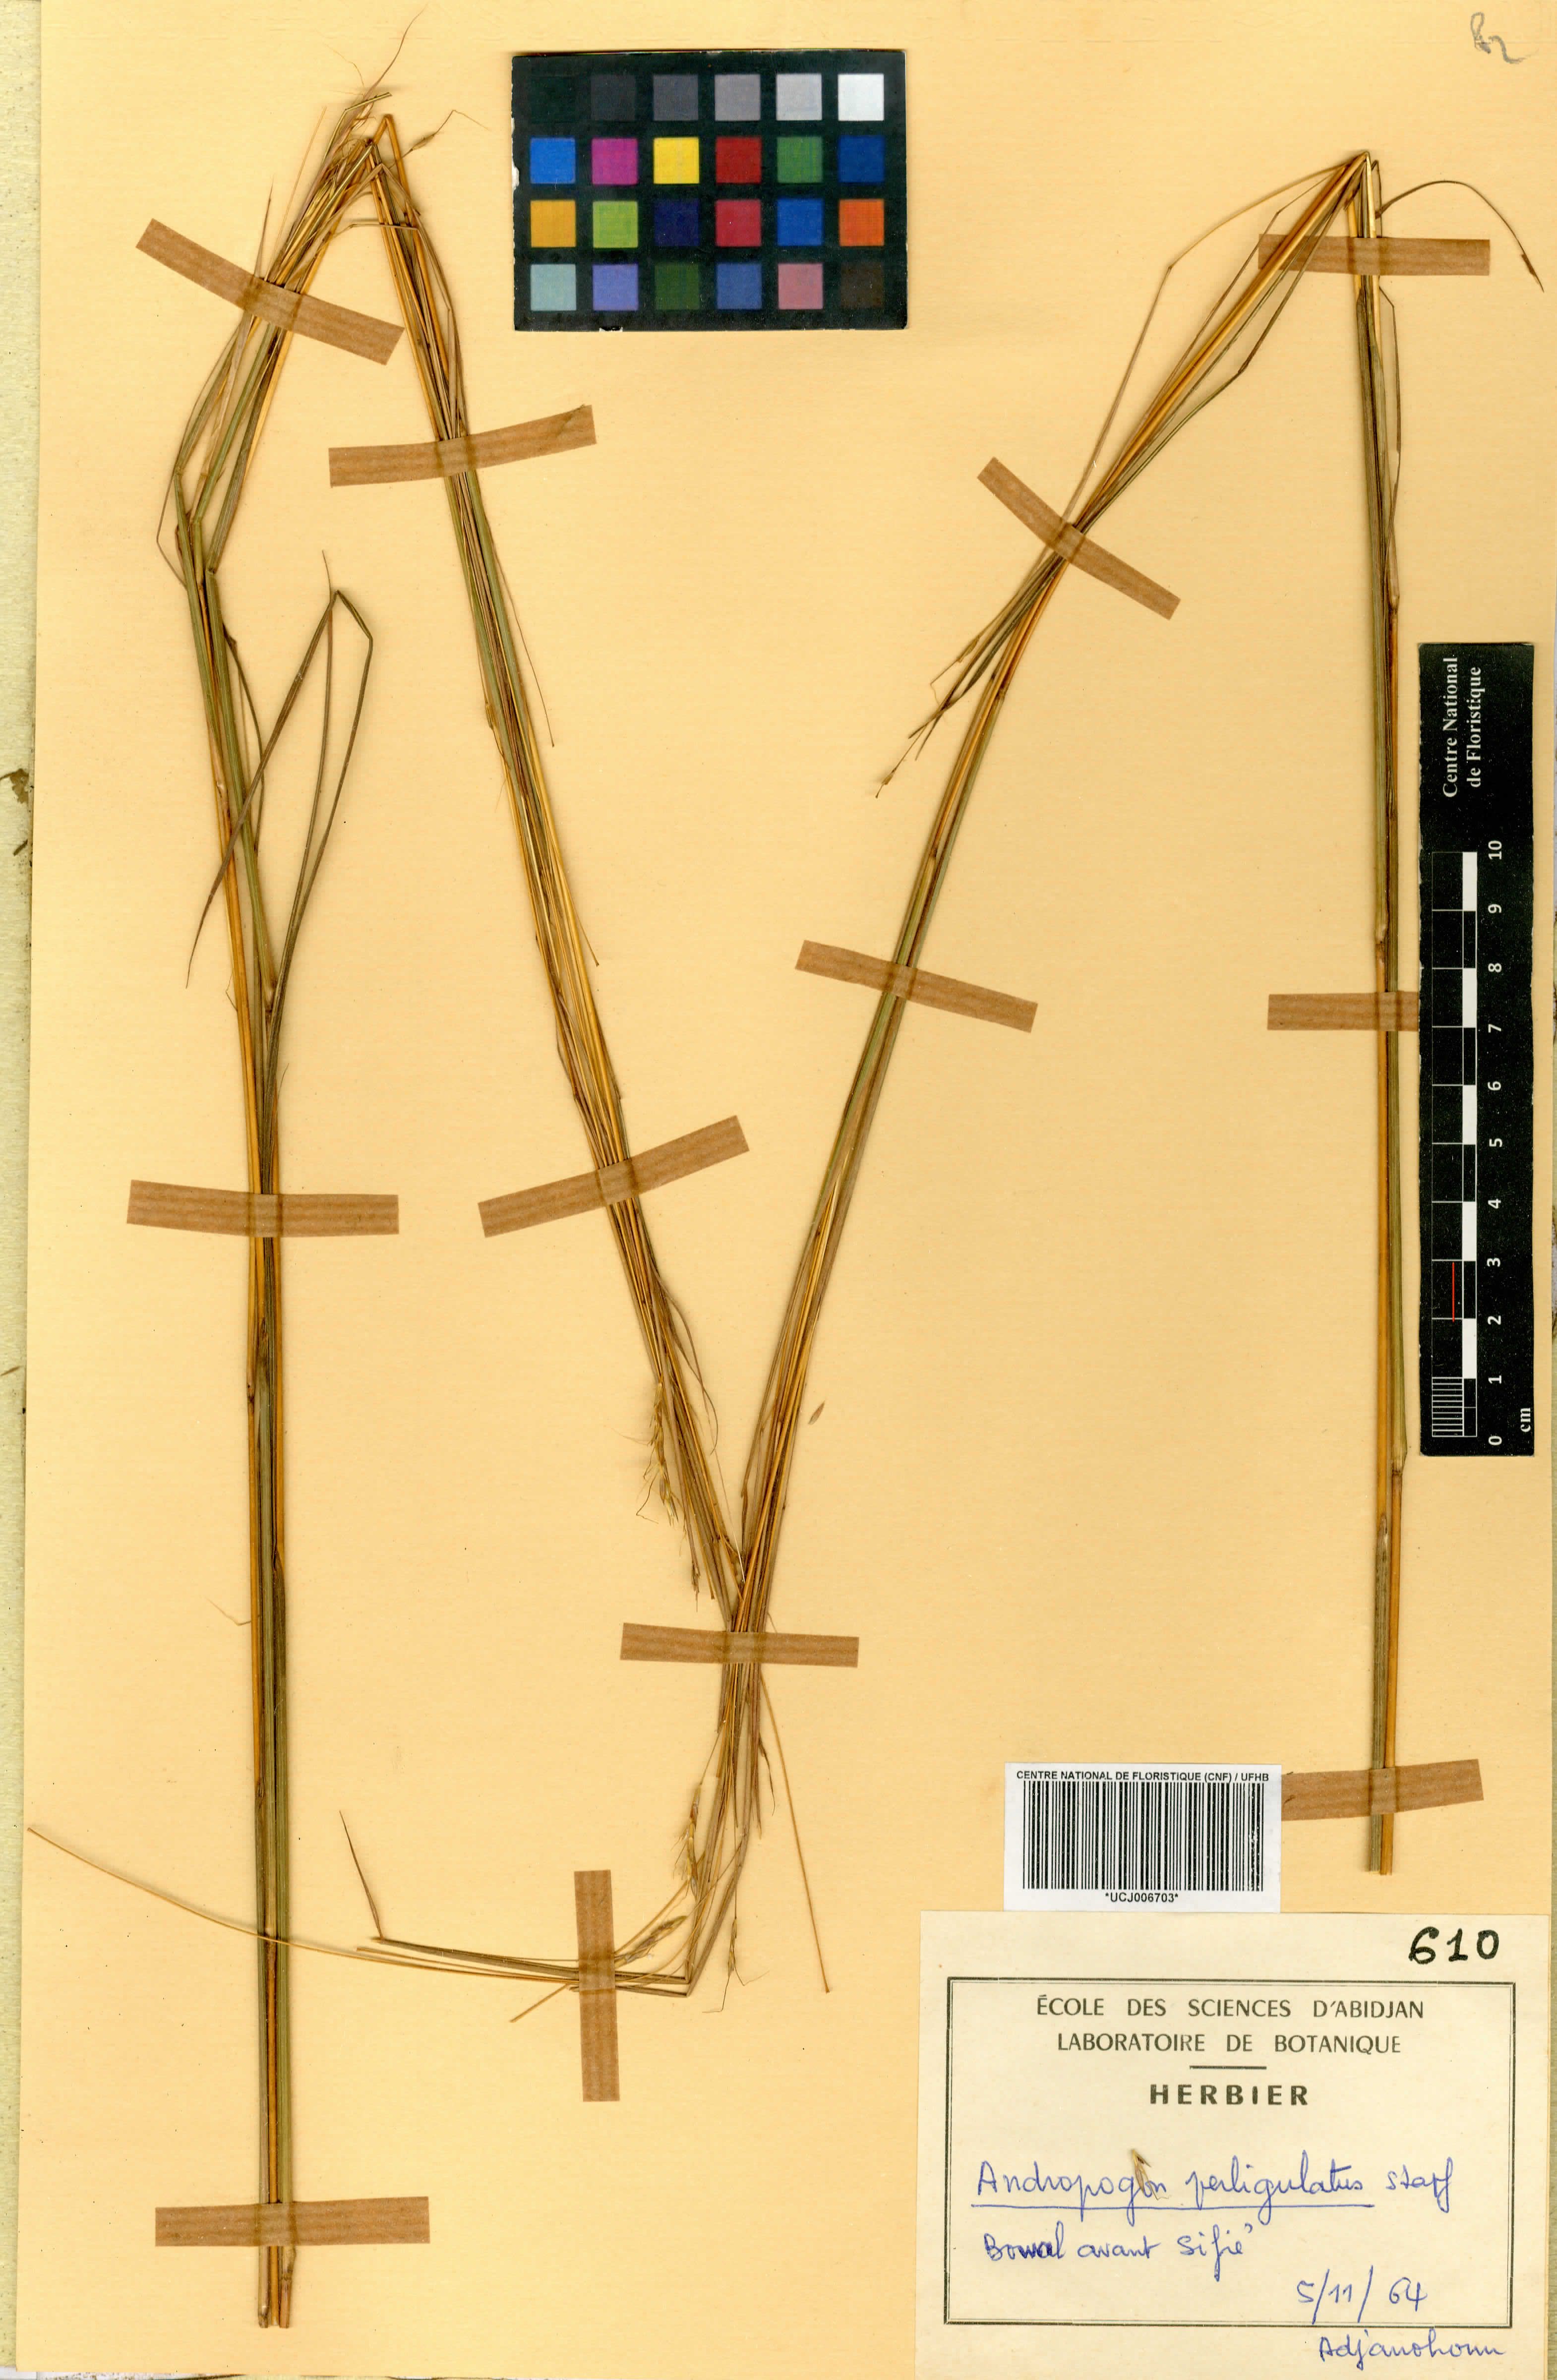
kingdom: Plantae
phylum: Tracheophyta
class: Liliopsida
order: Poales
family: Poaceae
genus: Andropogon
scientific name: Andropogon perligulatus
